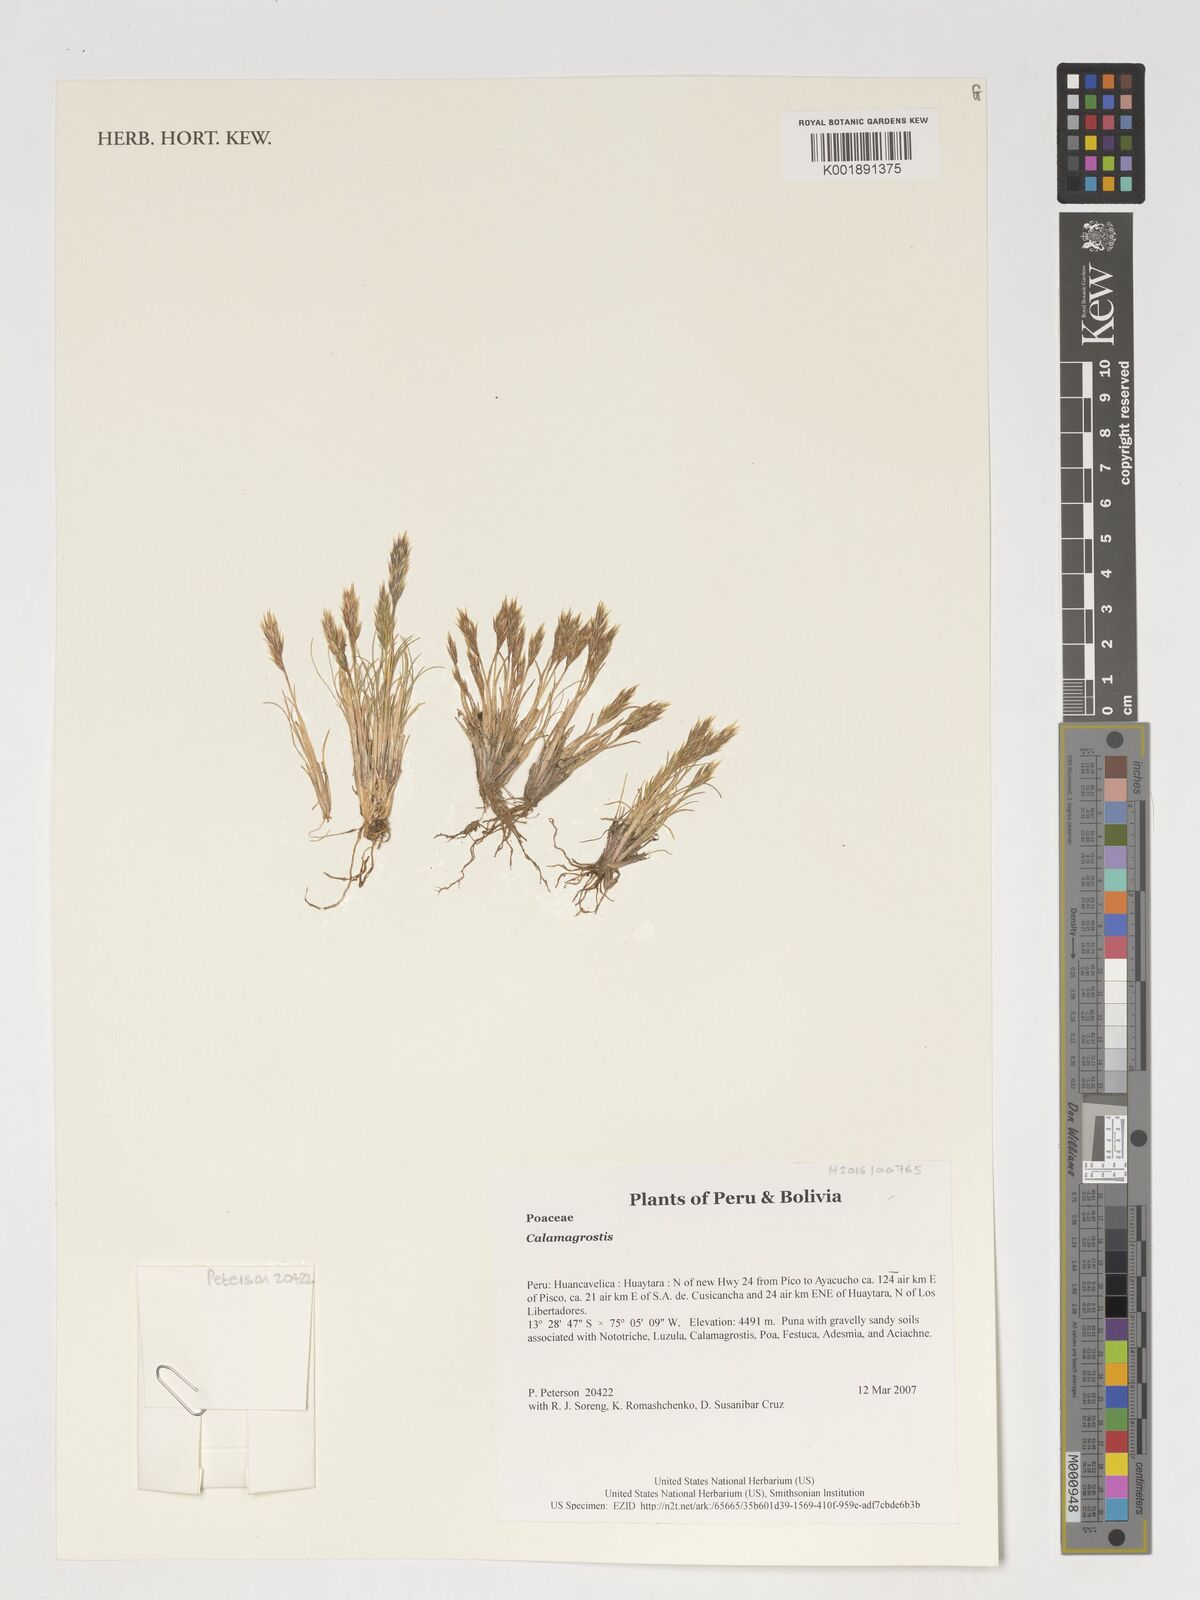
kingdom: Plantae
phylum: Tracheophyta
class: Liliopsida
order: Poales
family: Poaceae
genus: Calamagrostis
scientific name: Calamagrostis
